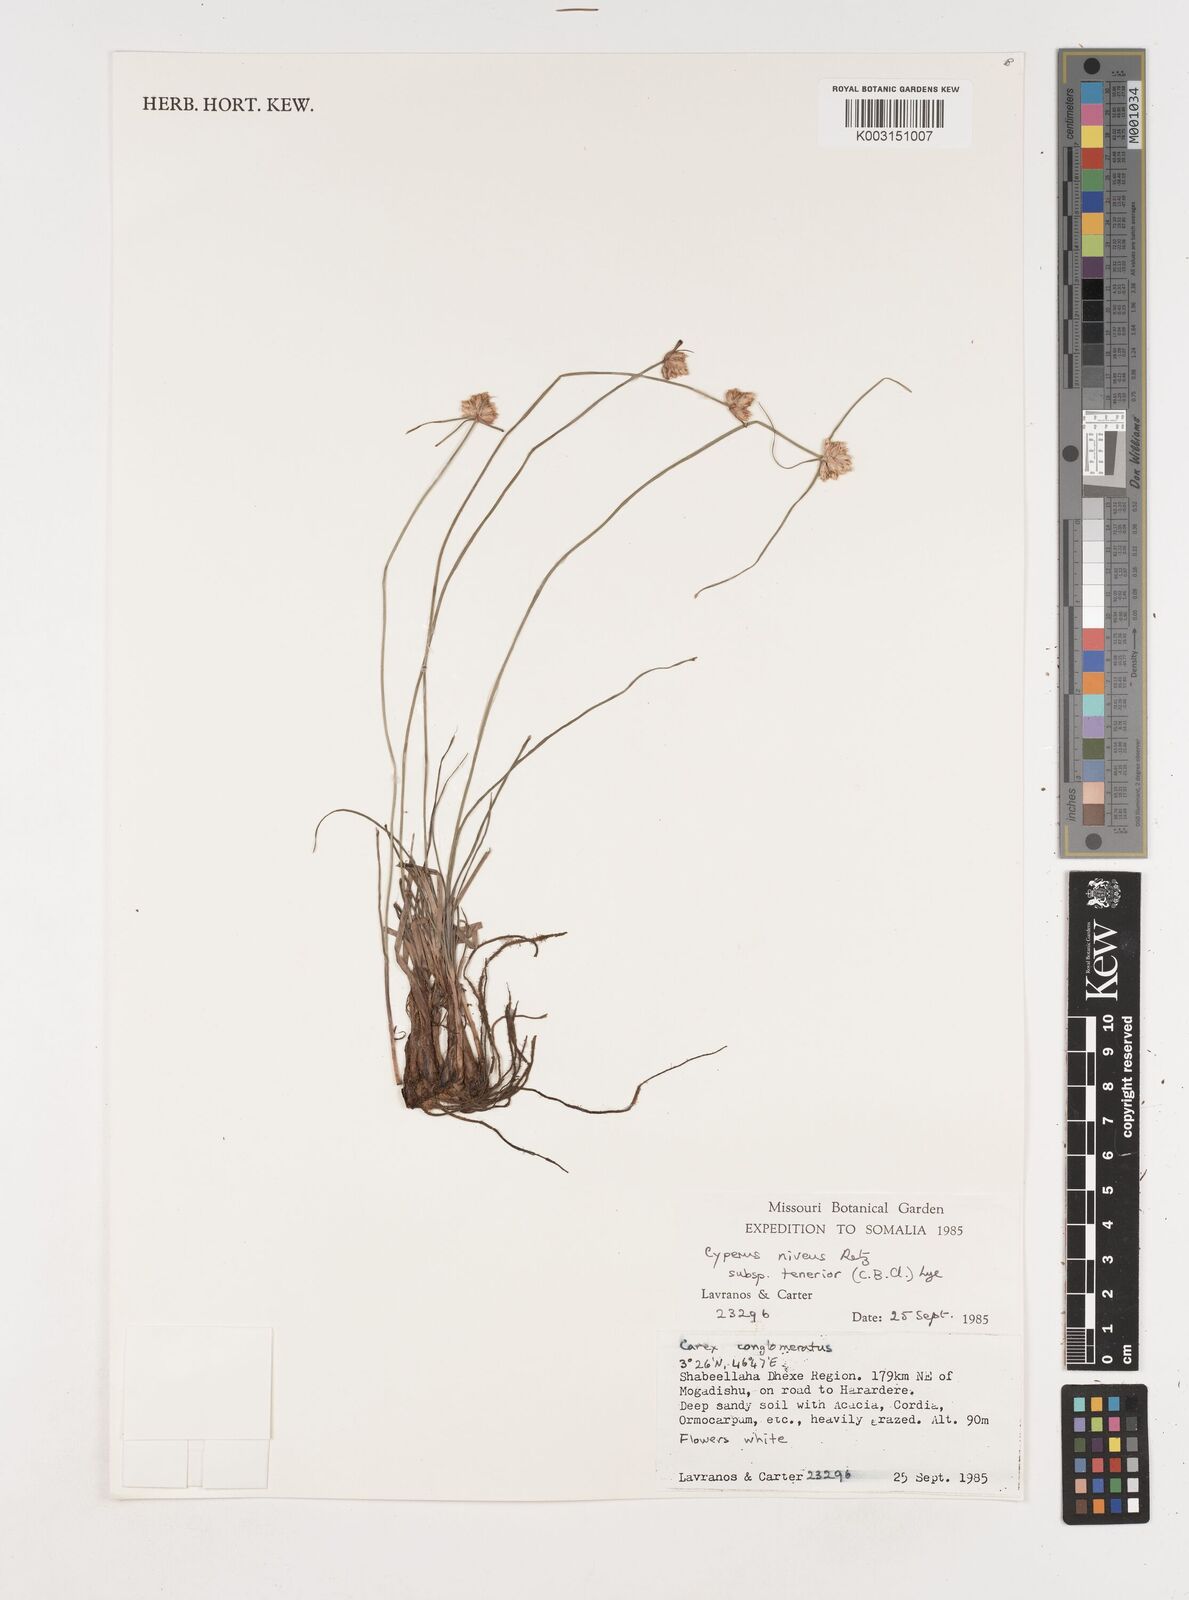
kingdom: Plantae
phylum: Tracheophyta
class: Liliopsida
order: Poales
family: Cyperaceae
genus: Cyperus
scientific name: Cyperus niveus
